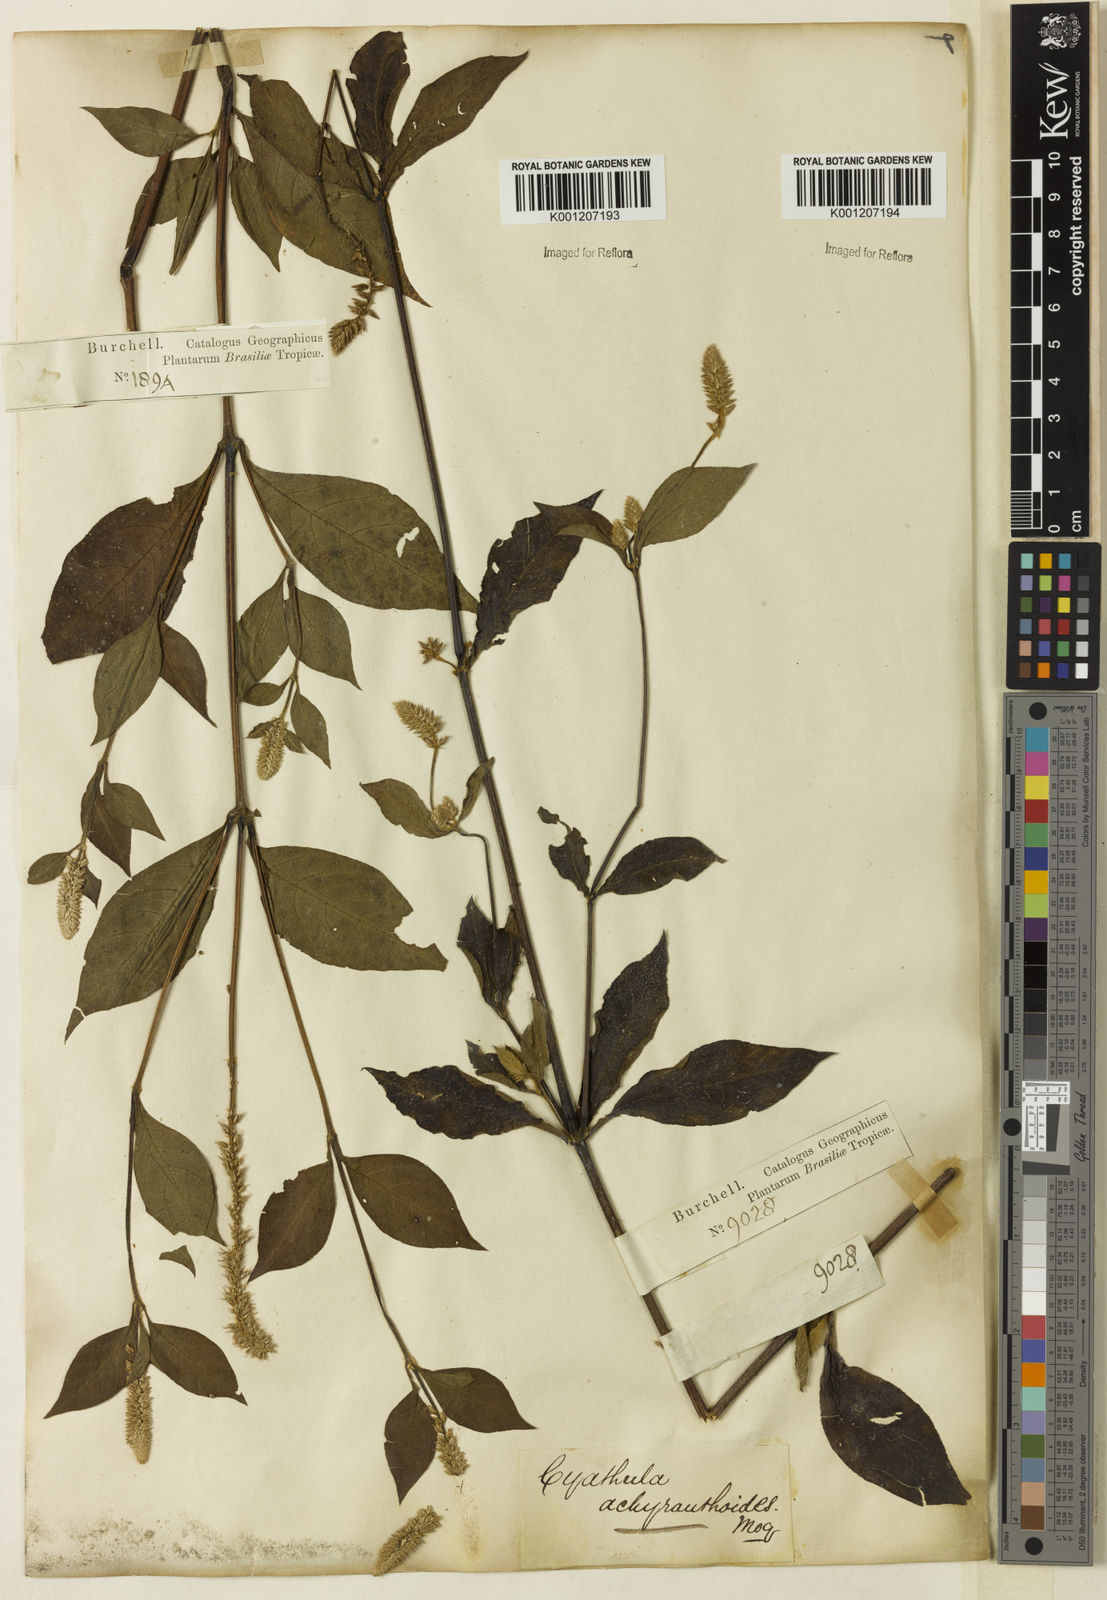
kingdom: Plantae
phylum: Tracheophyta
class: Magnoliopsida
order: Caryophyllales
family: Amaranthaceae
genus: Cyathula
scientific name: Cyathula achyranthoides
